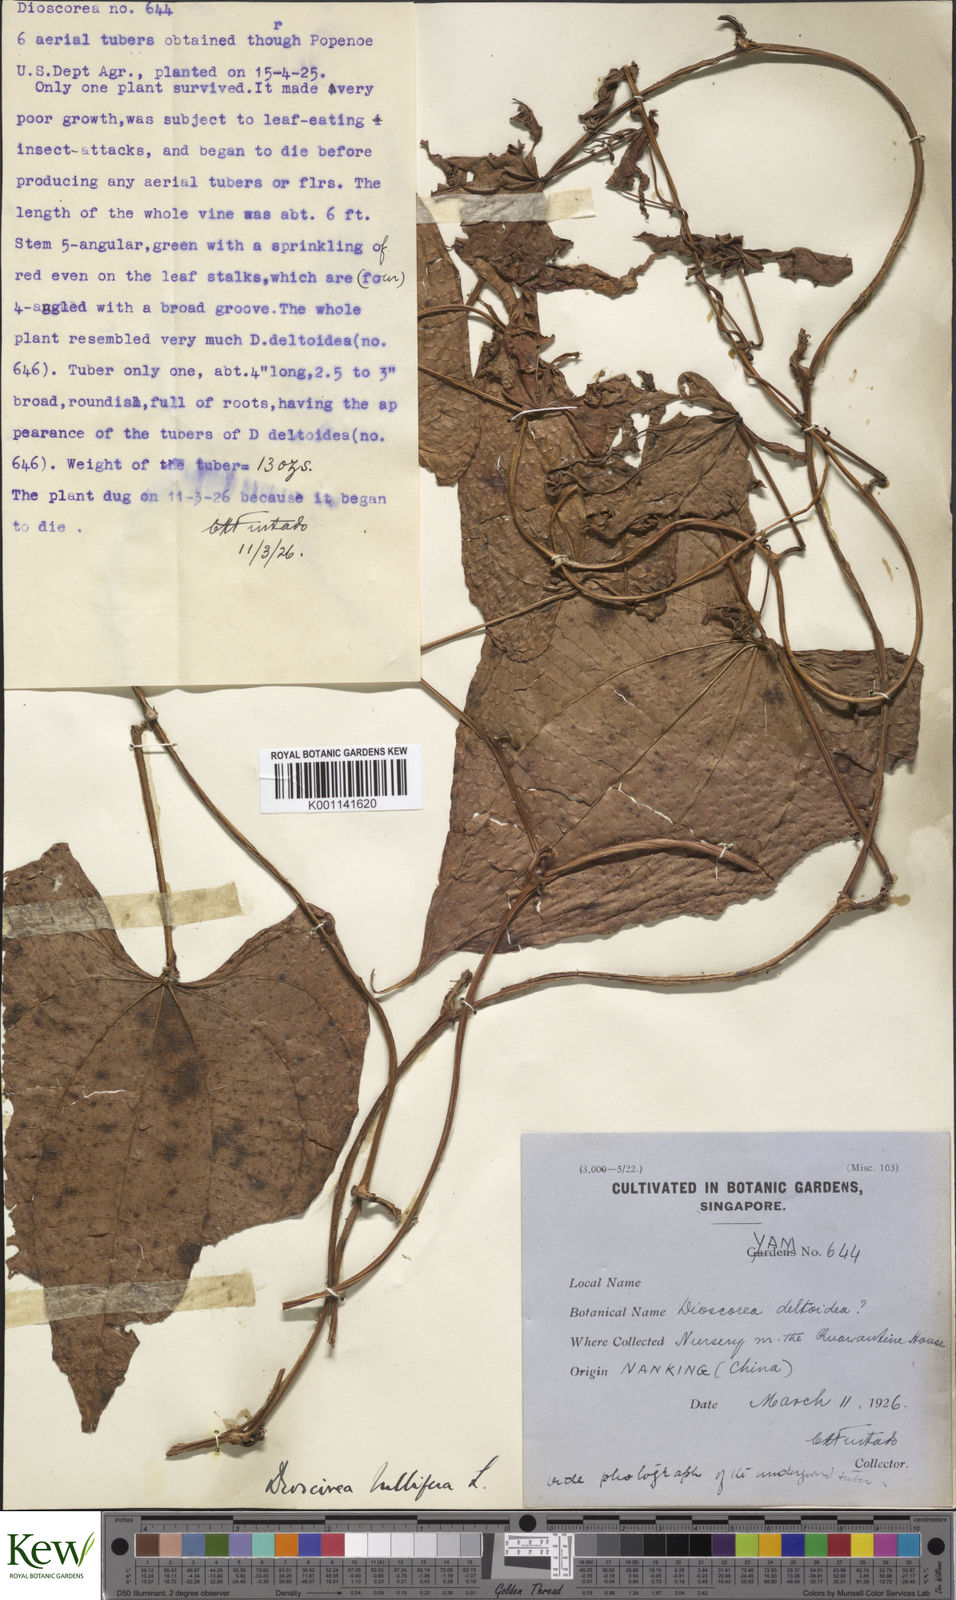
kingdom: Plantae
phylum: Tracheophyta
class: Liliopsida
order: Dioscoreales
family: Dioscoreaceae
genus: Dioscorea
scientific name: Dioscorea bulbifera
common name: Air yam
